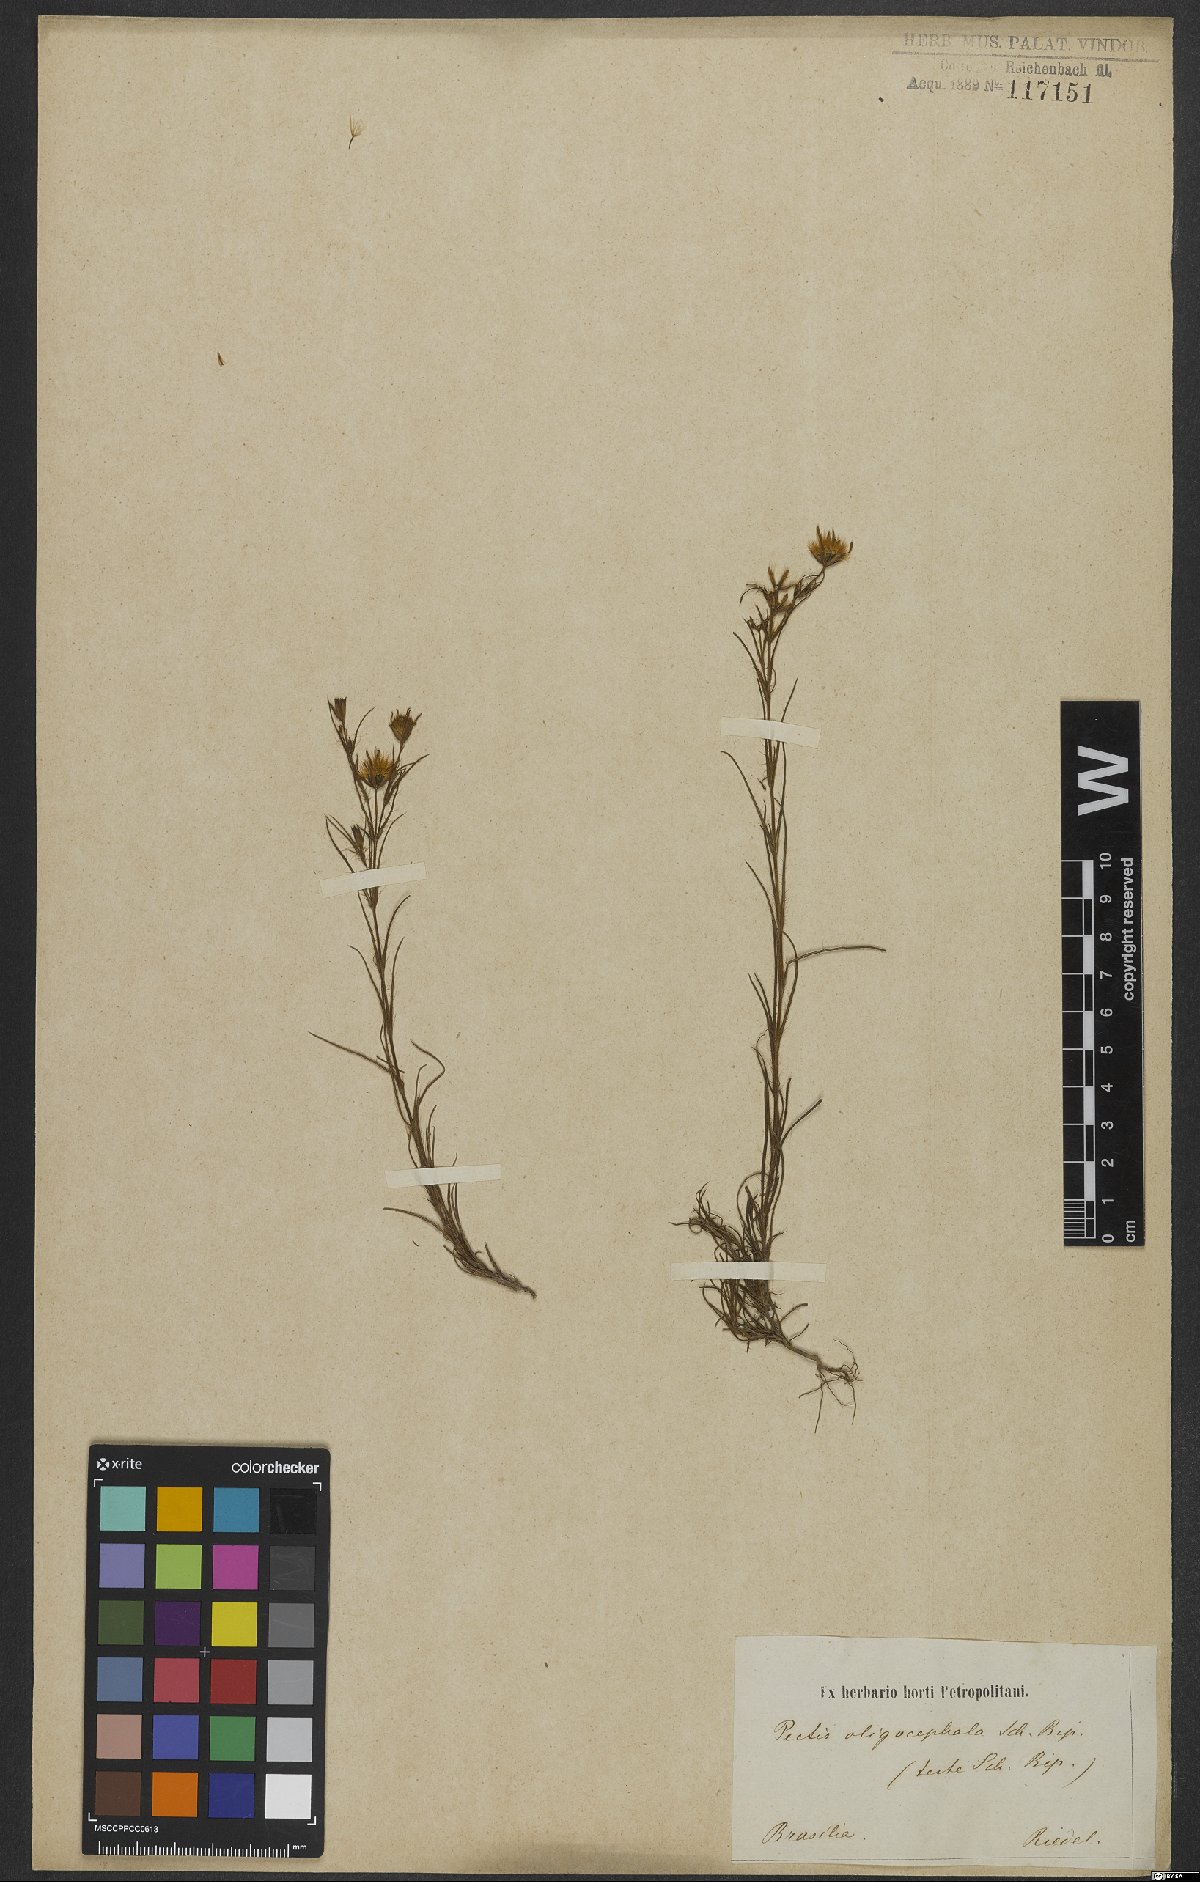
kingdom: Plantae
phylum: Tracheophyta
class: Magnoliopsida
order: Asterales
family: Asteraceae
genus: Pectis
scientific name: Pectis oligocephala
